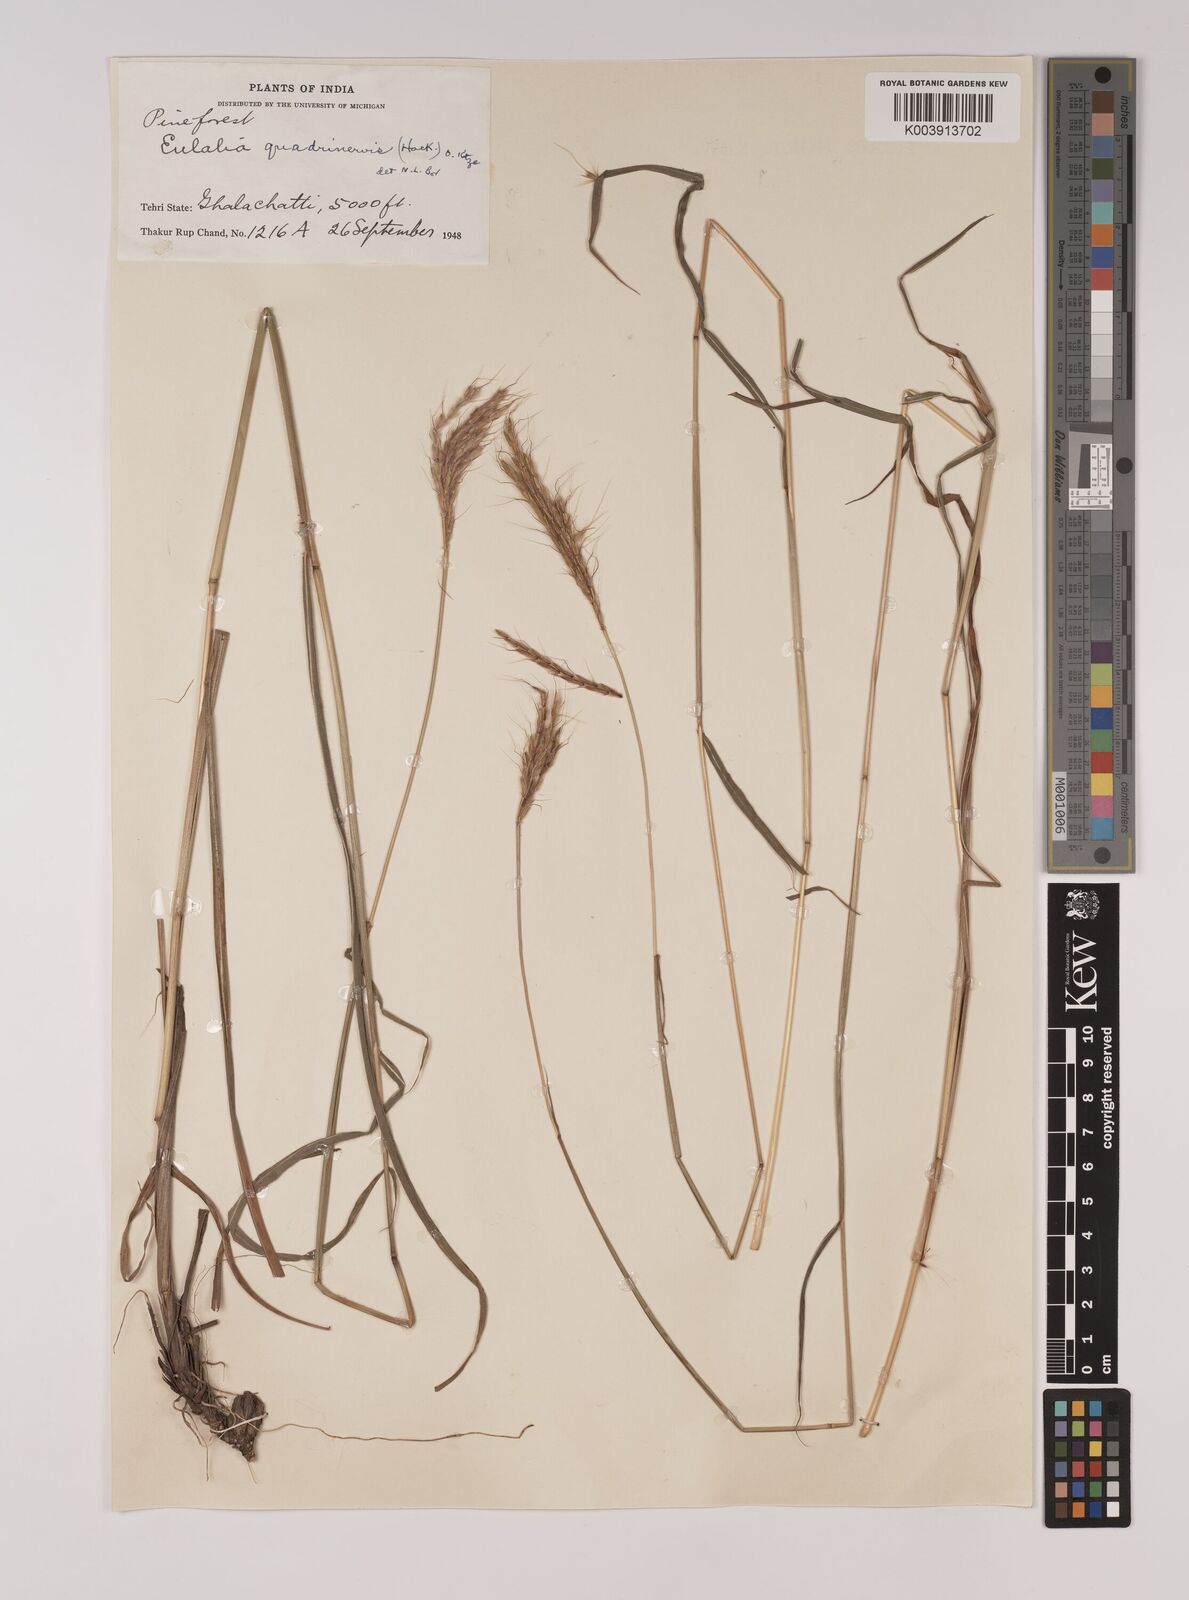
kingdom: Plantae
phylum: Tracheophyta
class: Liliopsida
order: Poales
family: Poaceae
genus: Pseudopogonatherum
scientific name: Pseudopogonatherum quadrinerve
